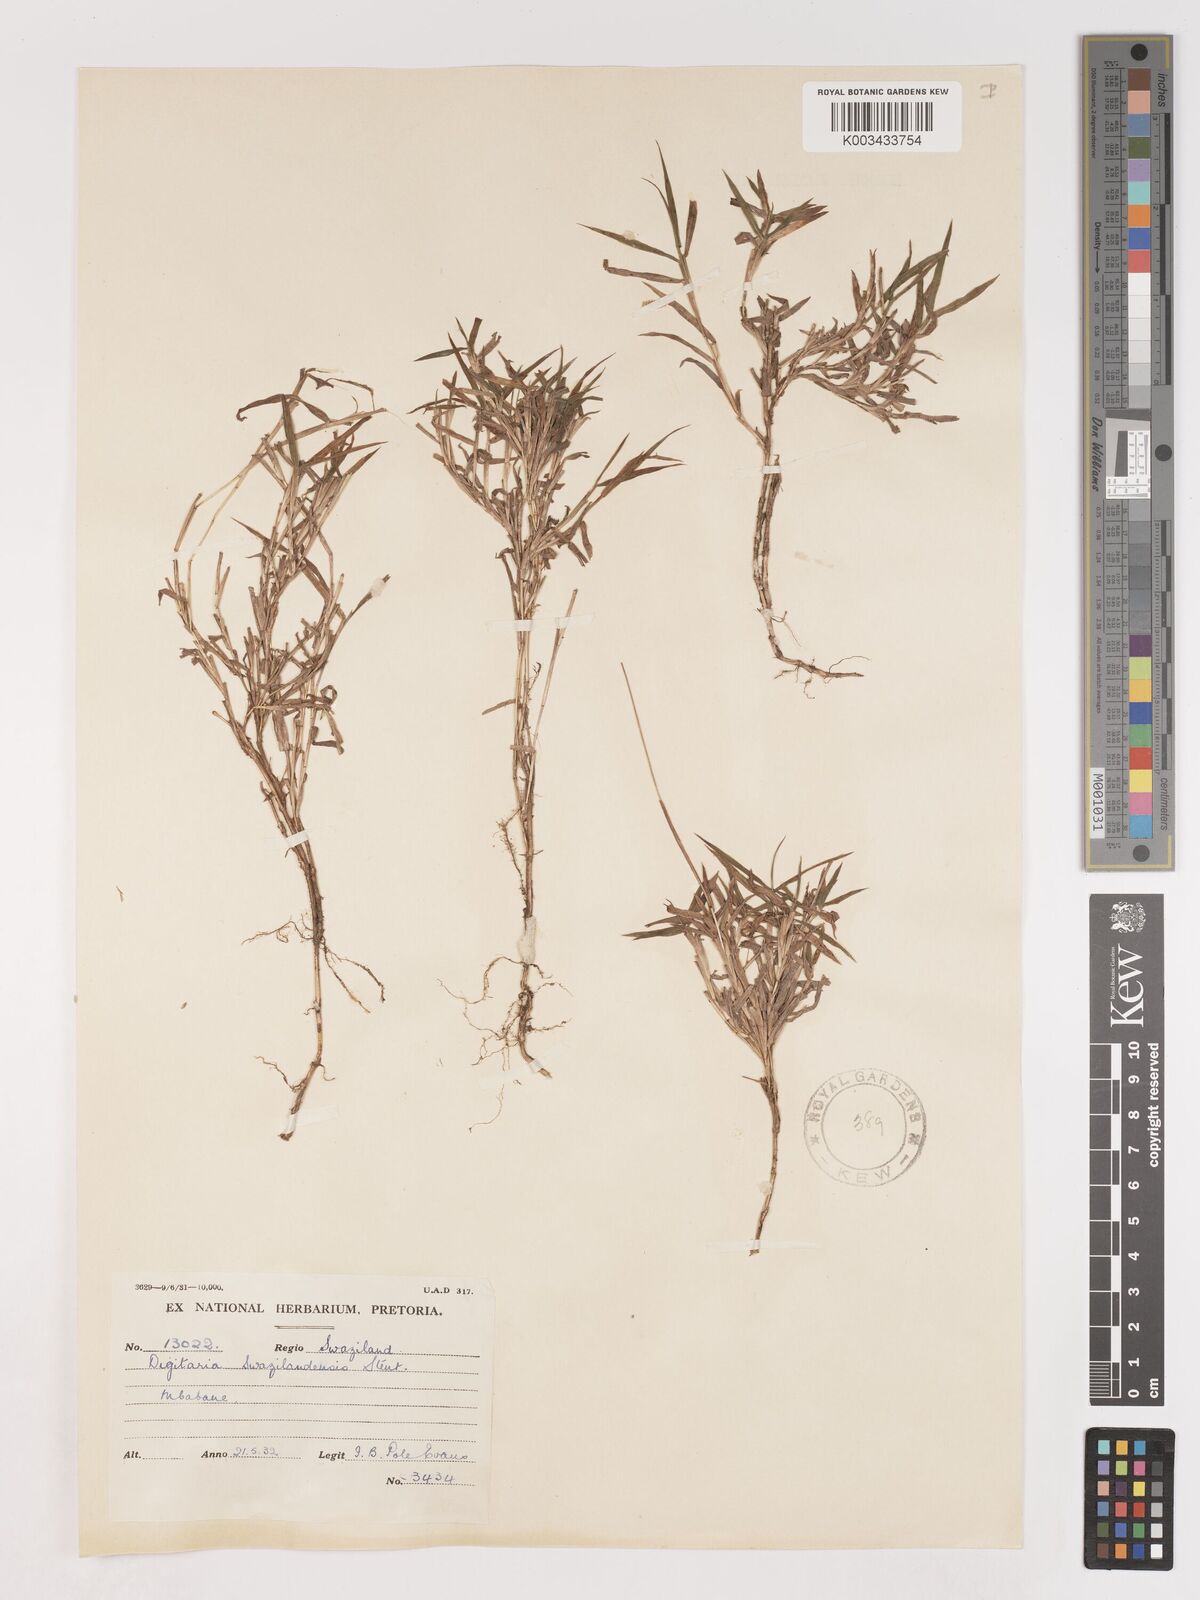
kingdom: Plantae
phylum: Tracheophyta
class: Liliopsida
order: Poales
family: Poaceae
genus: Digitaria
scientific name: Digitaria didactyla
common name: Blue couch
